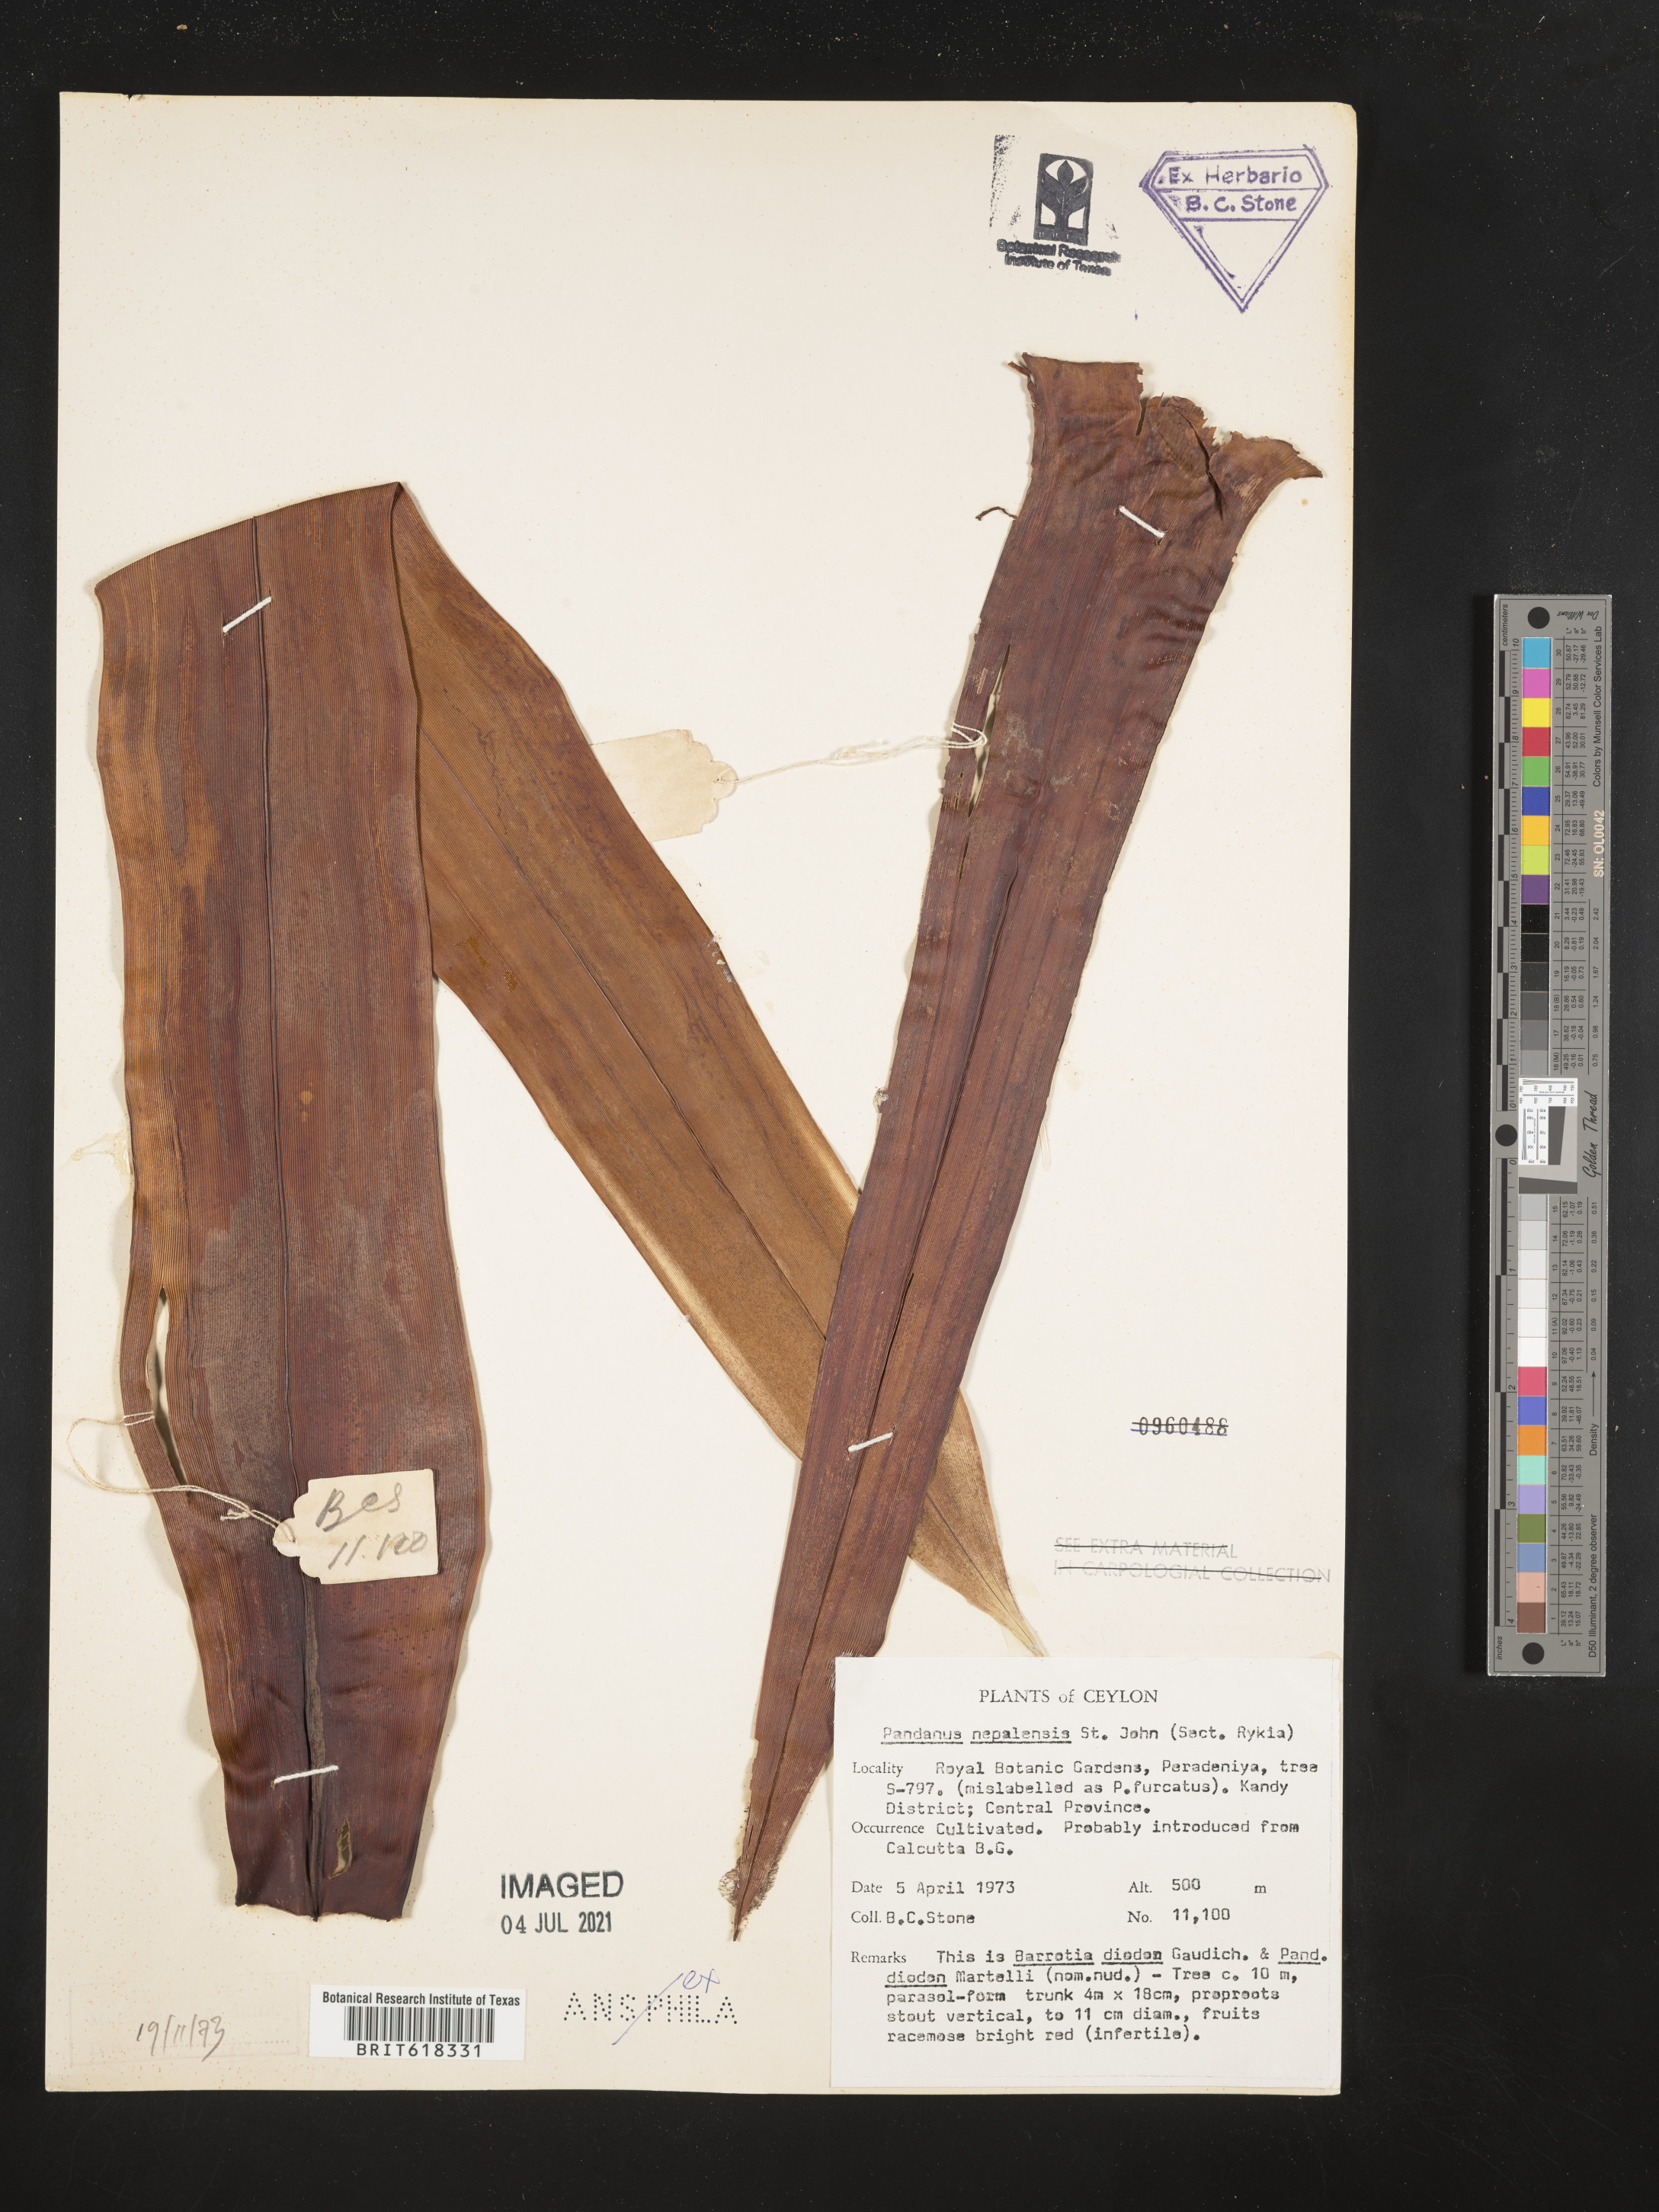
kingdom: Plantae
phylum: Tracheophyta
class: Liliopsida
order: Pandanales
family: Pandanaceae
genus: Pandanus
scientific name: Pandanus furcatus
